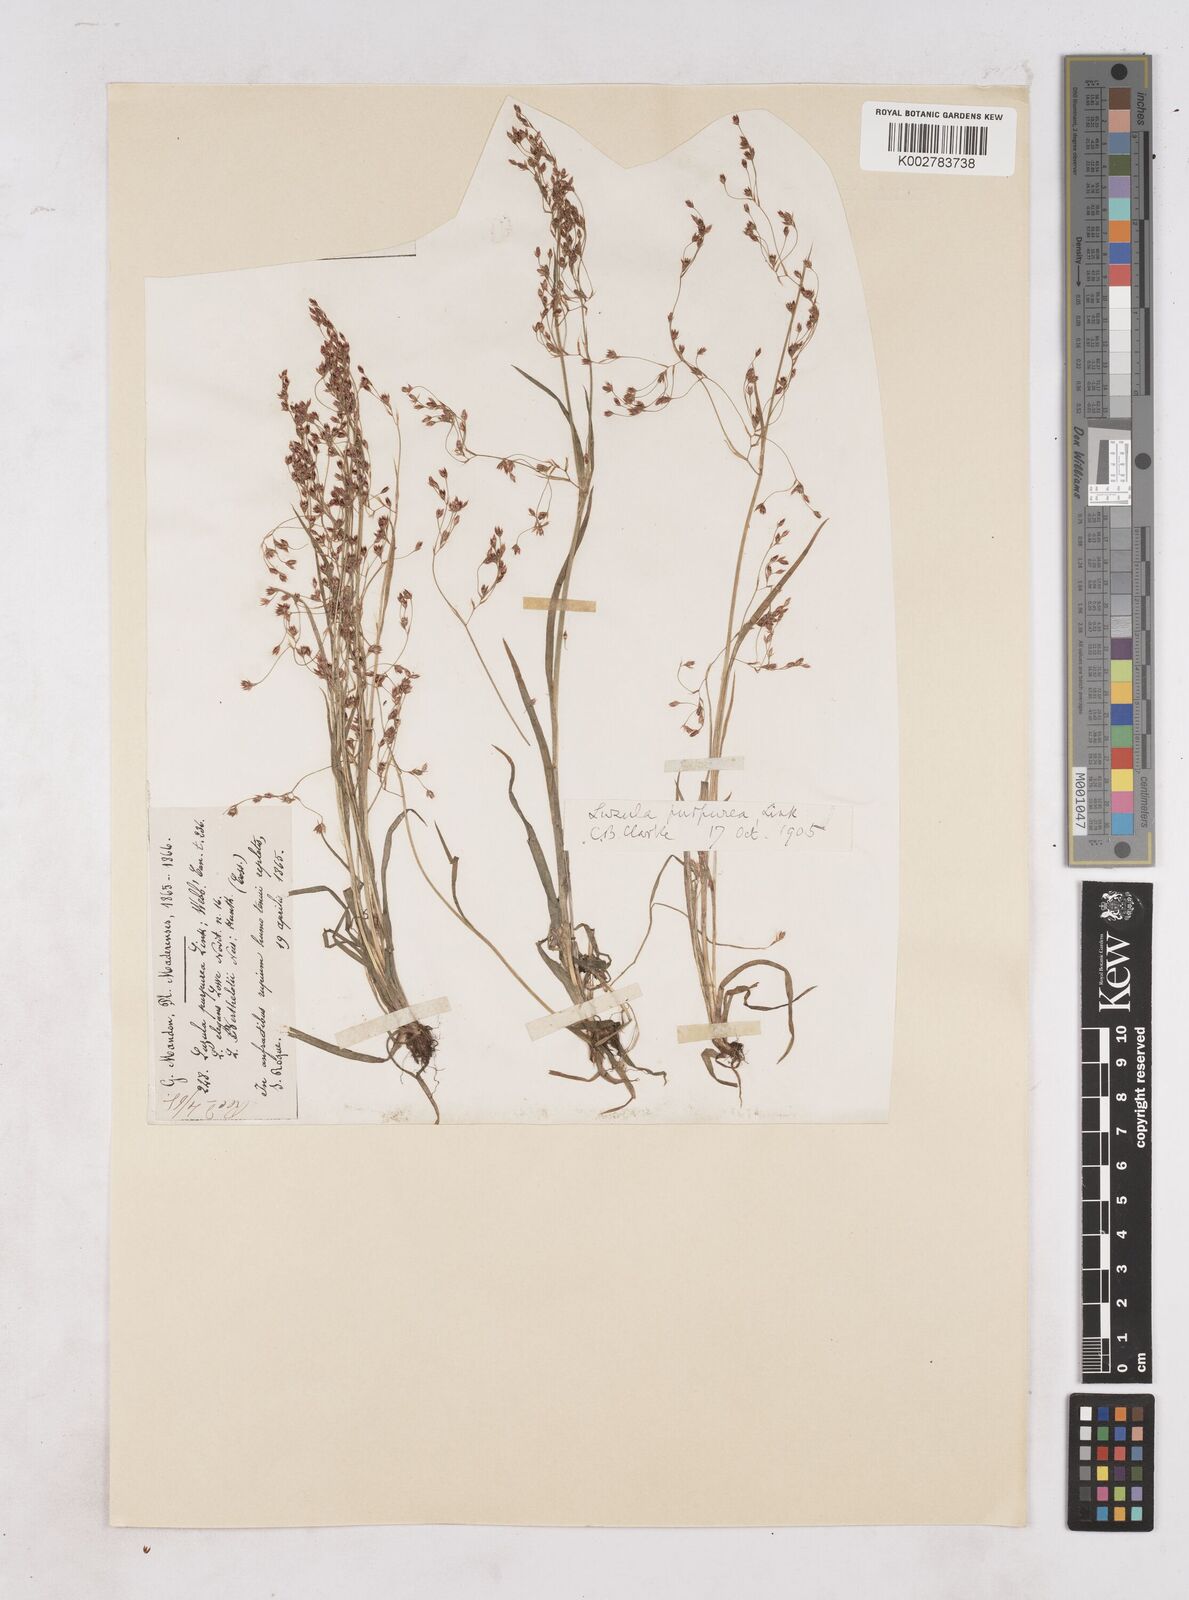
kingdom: Plantae
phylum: Tracheophyta
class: Liliopsida
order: Poales
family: Juncaceae
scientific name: Juncaceae
